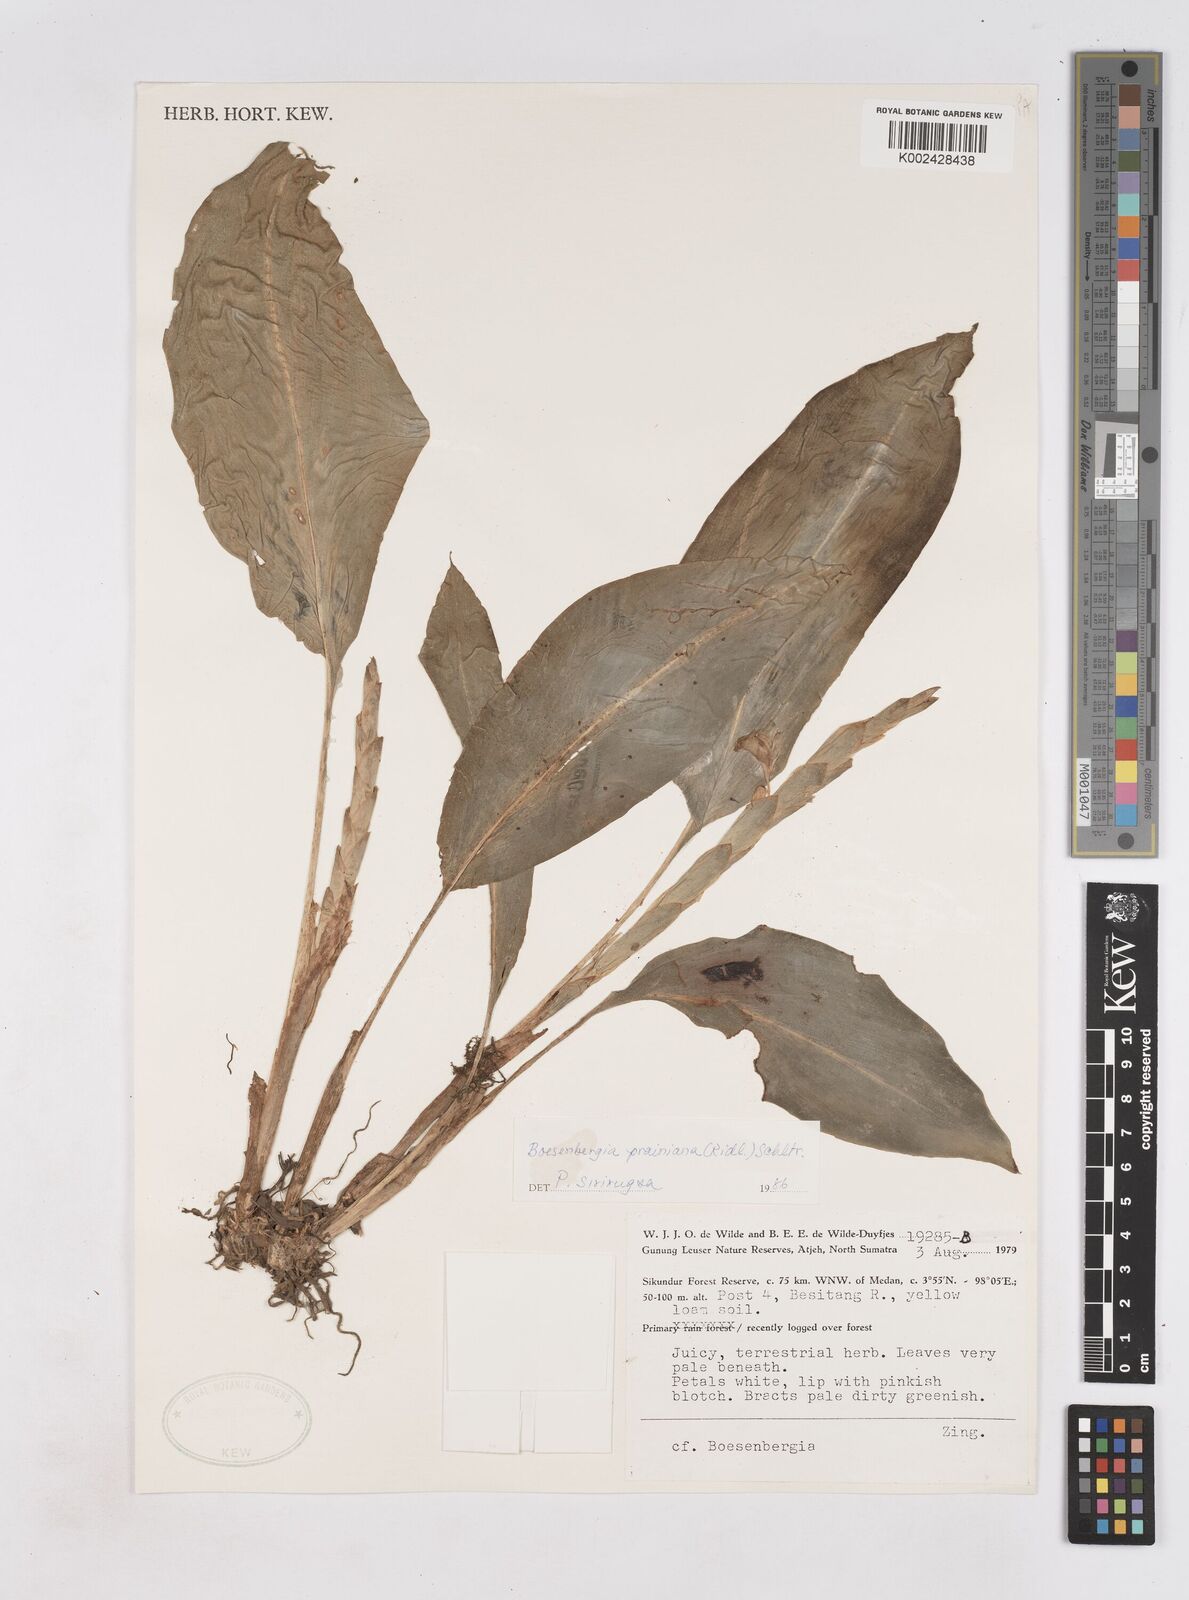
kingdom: Plantae
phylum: Tracheophyta
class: Liliopsida
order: Zingiberales
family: Zingiberaceae
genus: Boesenbergia
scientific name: Boesenbergia prainiana
